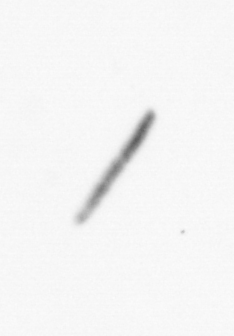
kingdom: Chromista
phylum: Ochrophyta
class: Bacillariophyceae
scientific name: Bacillariophyceae
